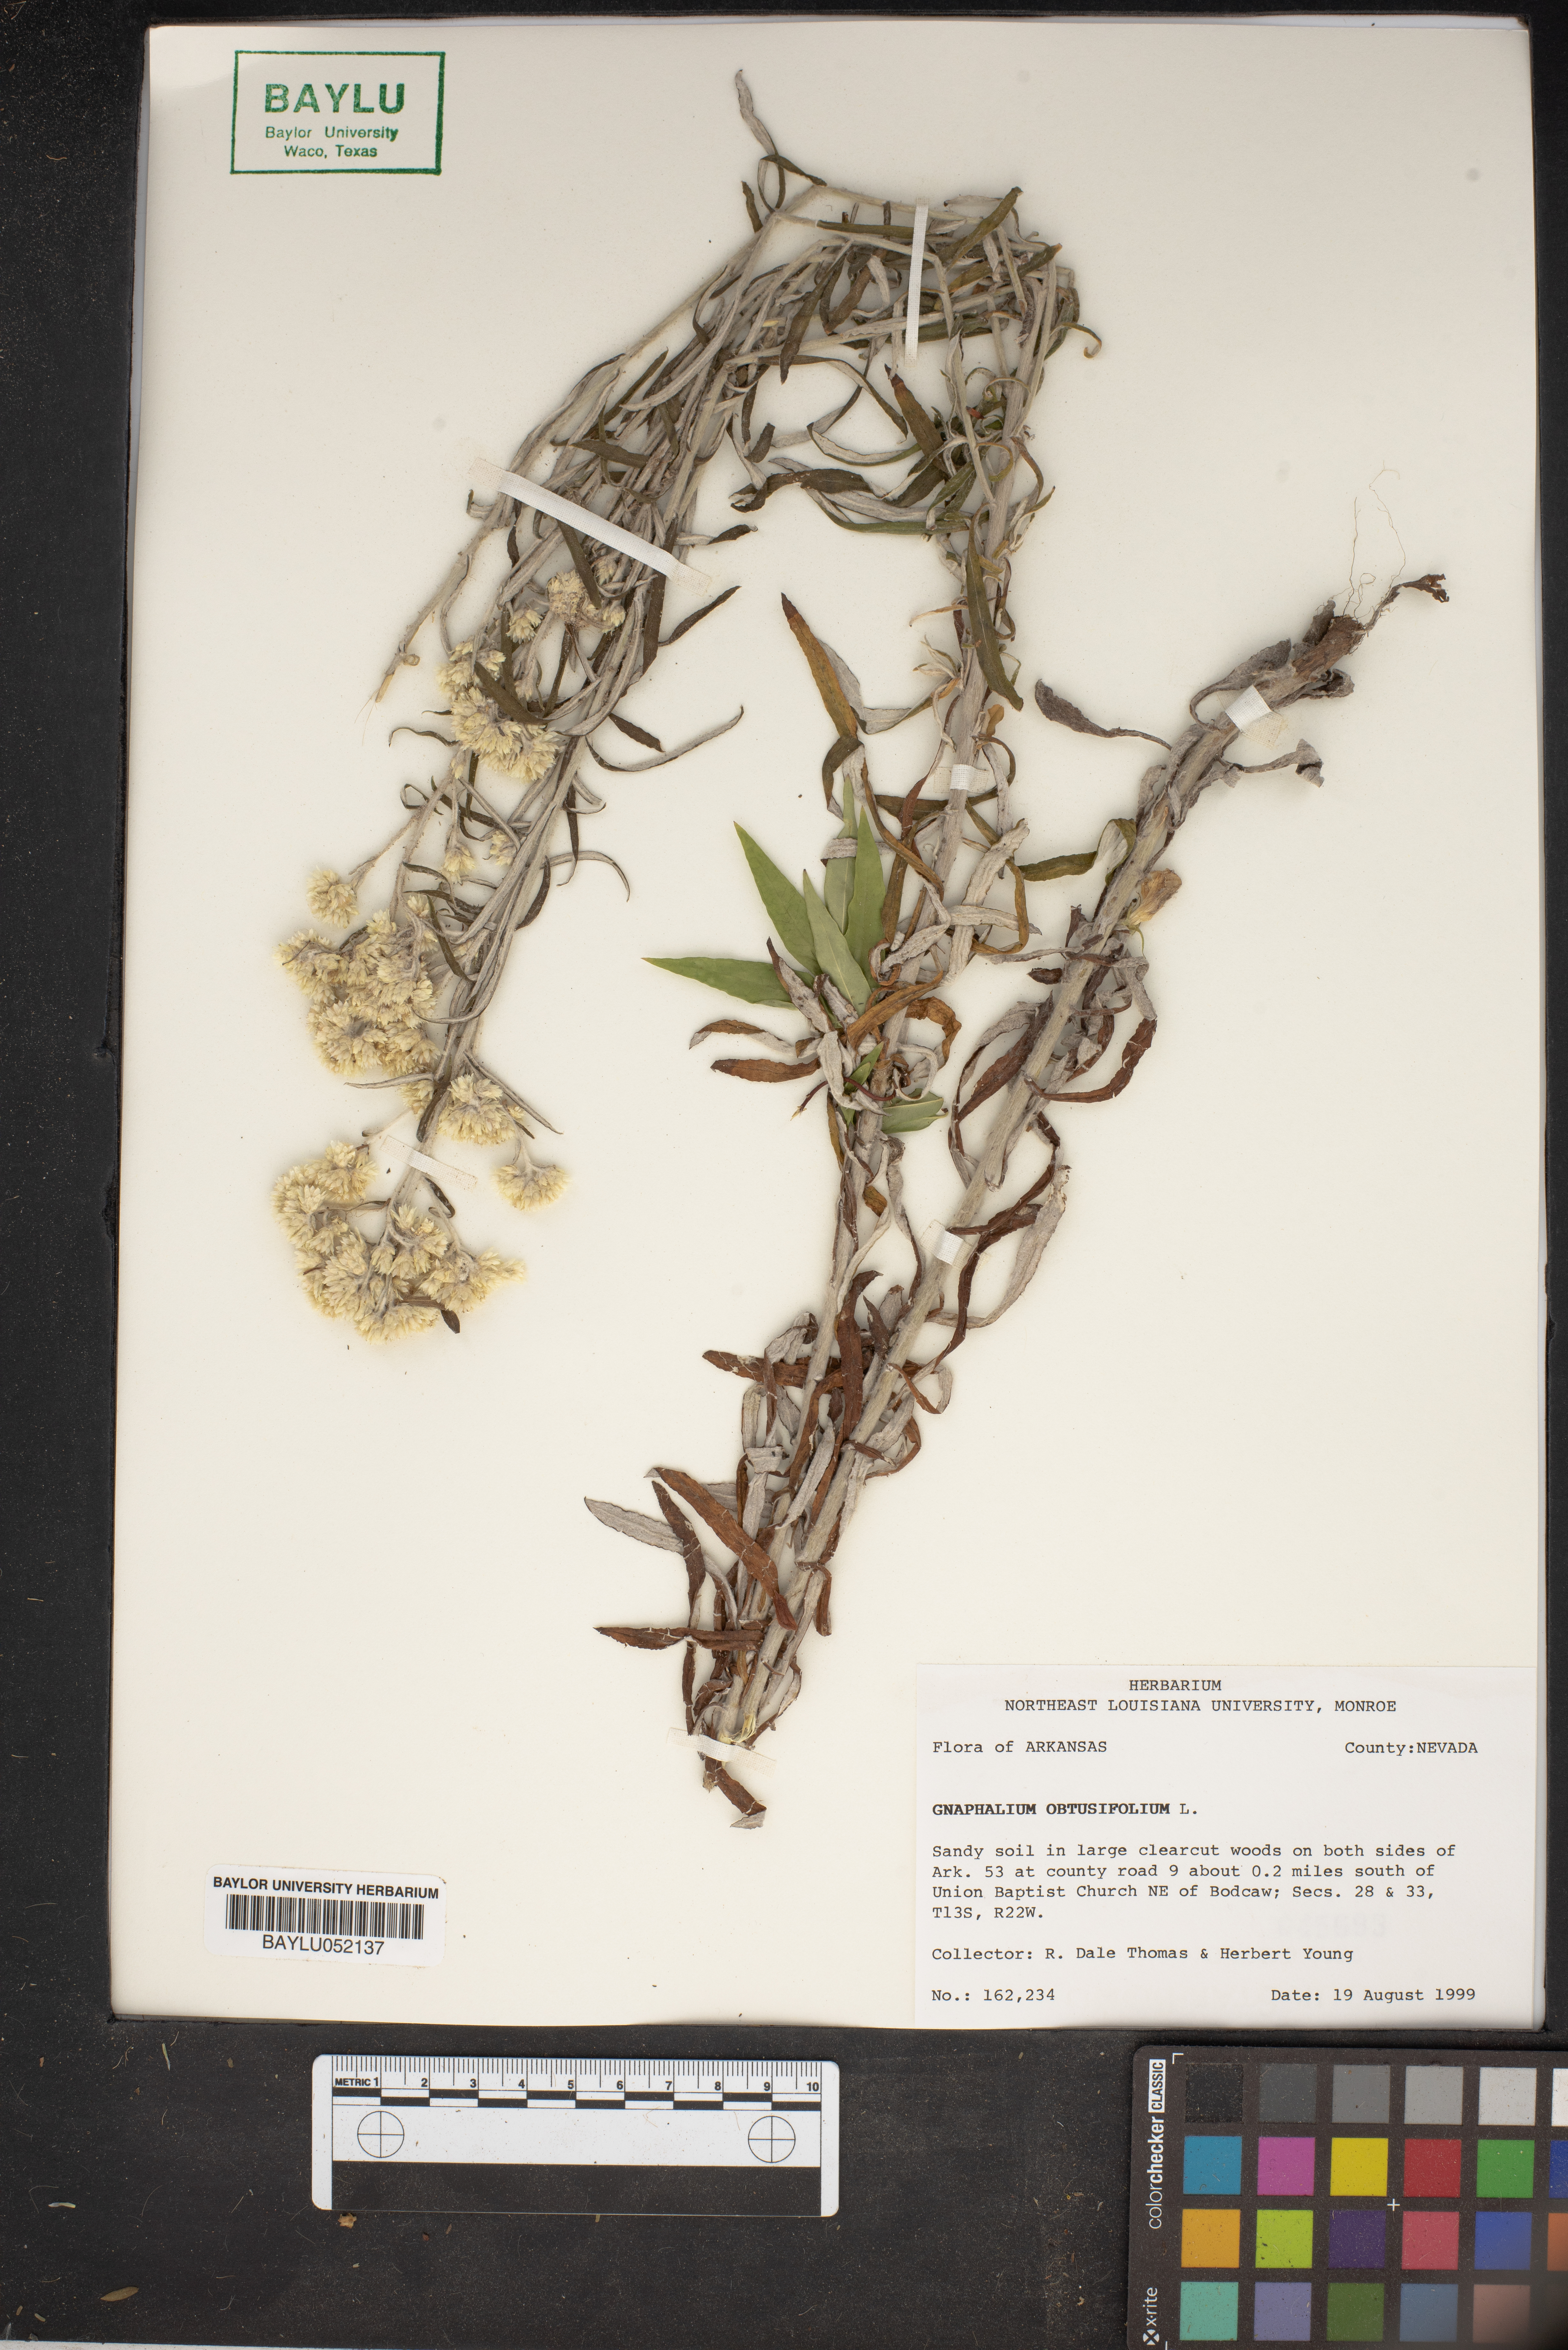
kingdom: Plantae
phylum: Tracheophyta
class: Magnoliopsida
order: Asterales
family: Asteraceae
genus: Pseudognaphalium
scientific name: Pseudognaphalium obtusifolium
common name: Eastern rabbit-tobacco
